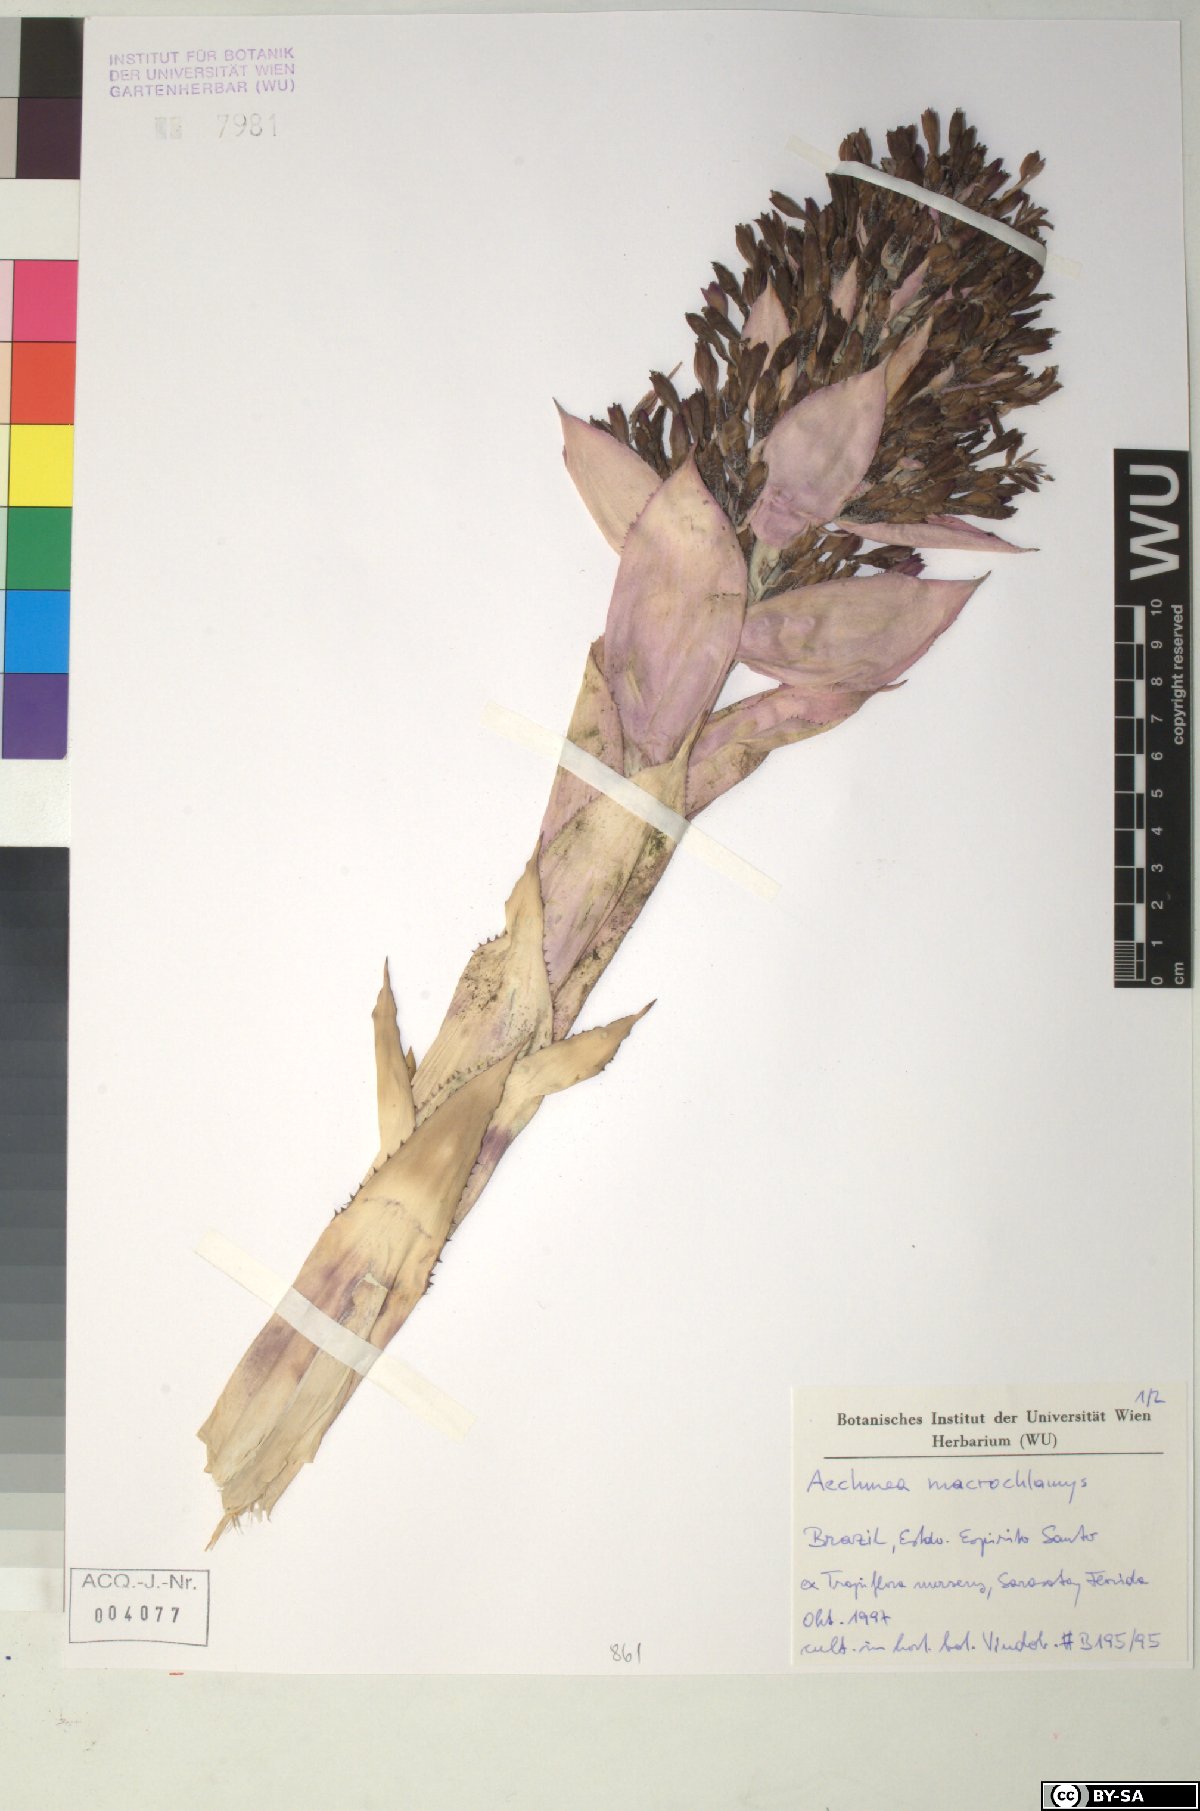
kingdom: Plantae
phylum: Tracheophyta
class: Liliopsida
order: Poales
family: Bromeliaceae
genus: Aechmea
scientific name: Aechmea macrochlamys
